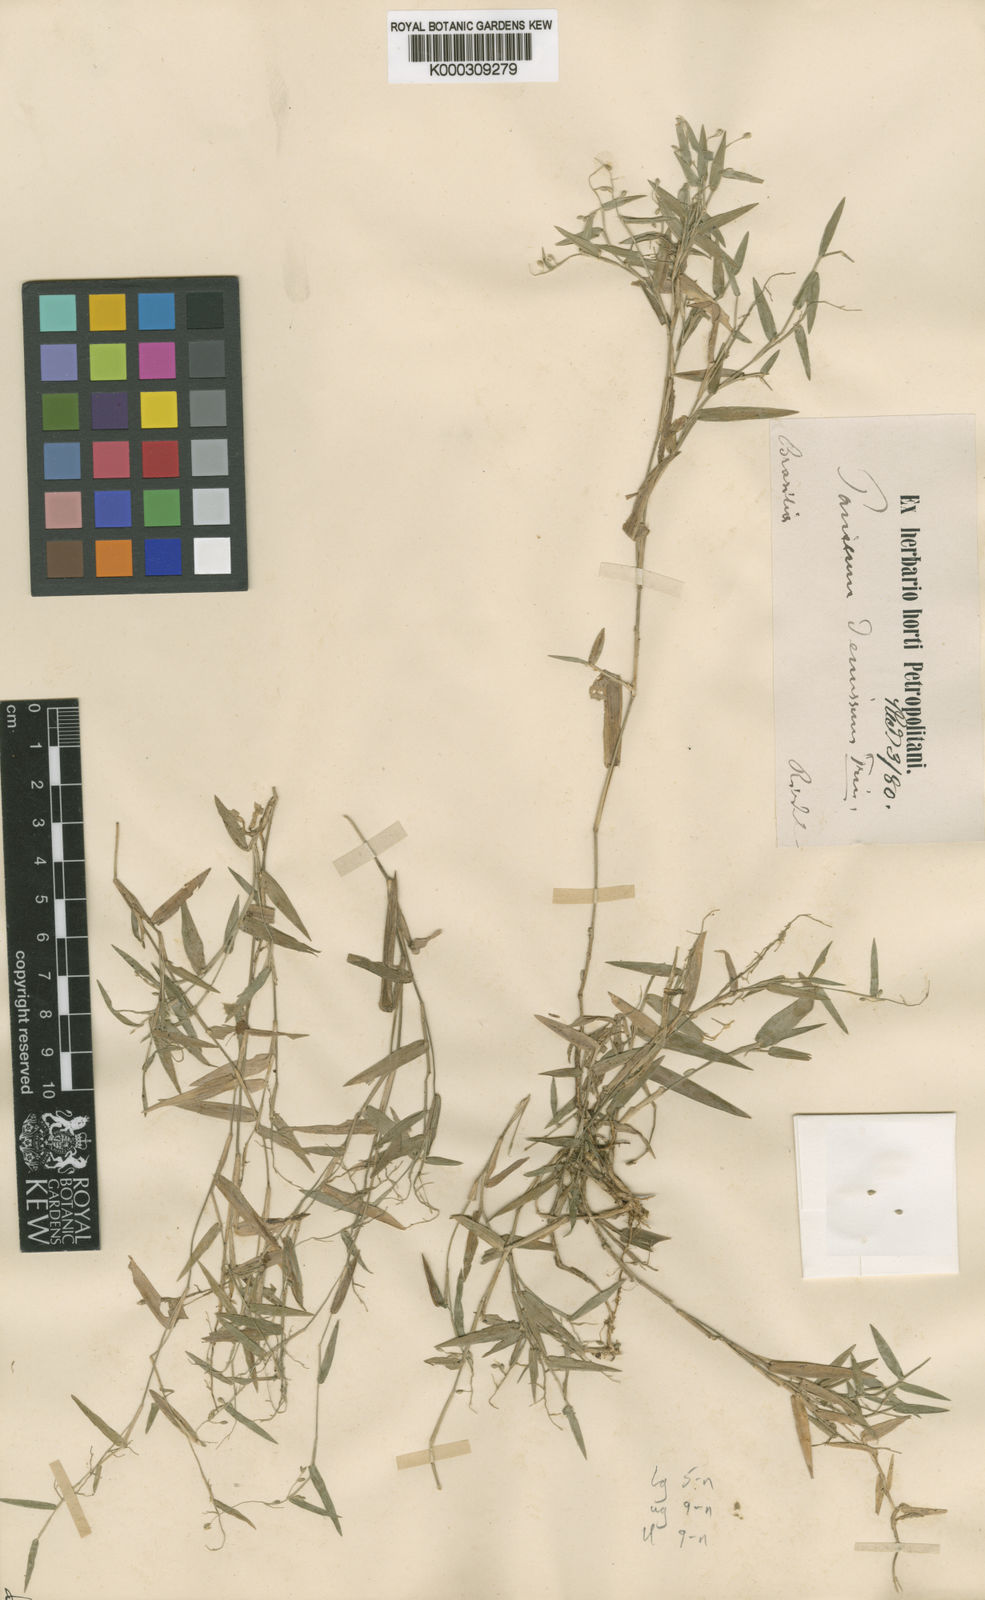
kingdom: Plantae
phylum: Tracheophyta
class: Liliopsida
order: Poales
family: Poaceae
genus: Dichanthelium
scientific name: Dichanthelium sabulorum
